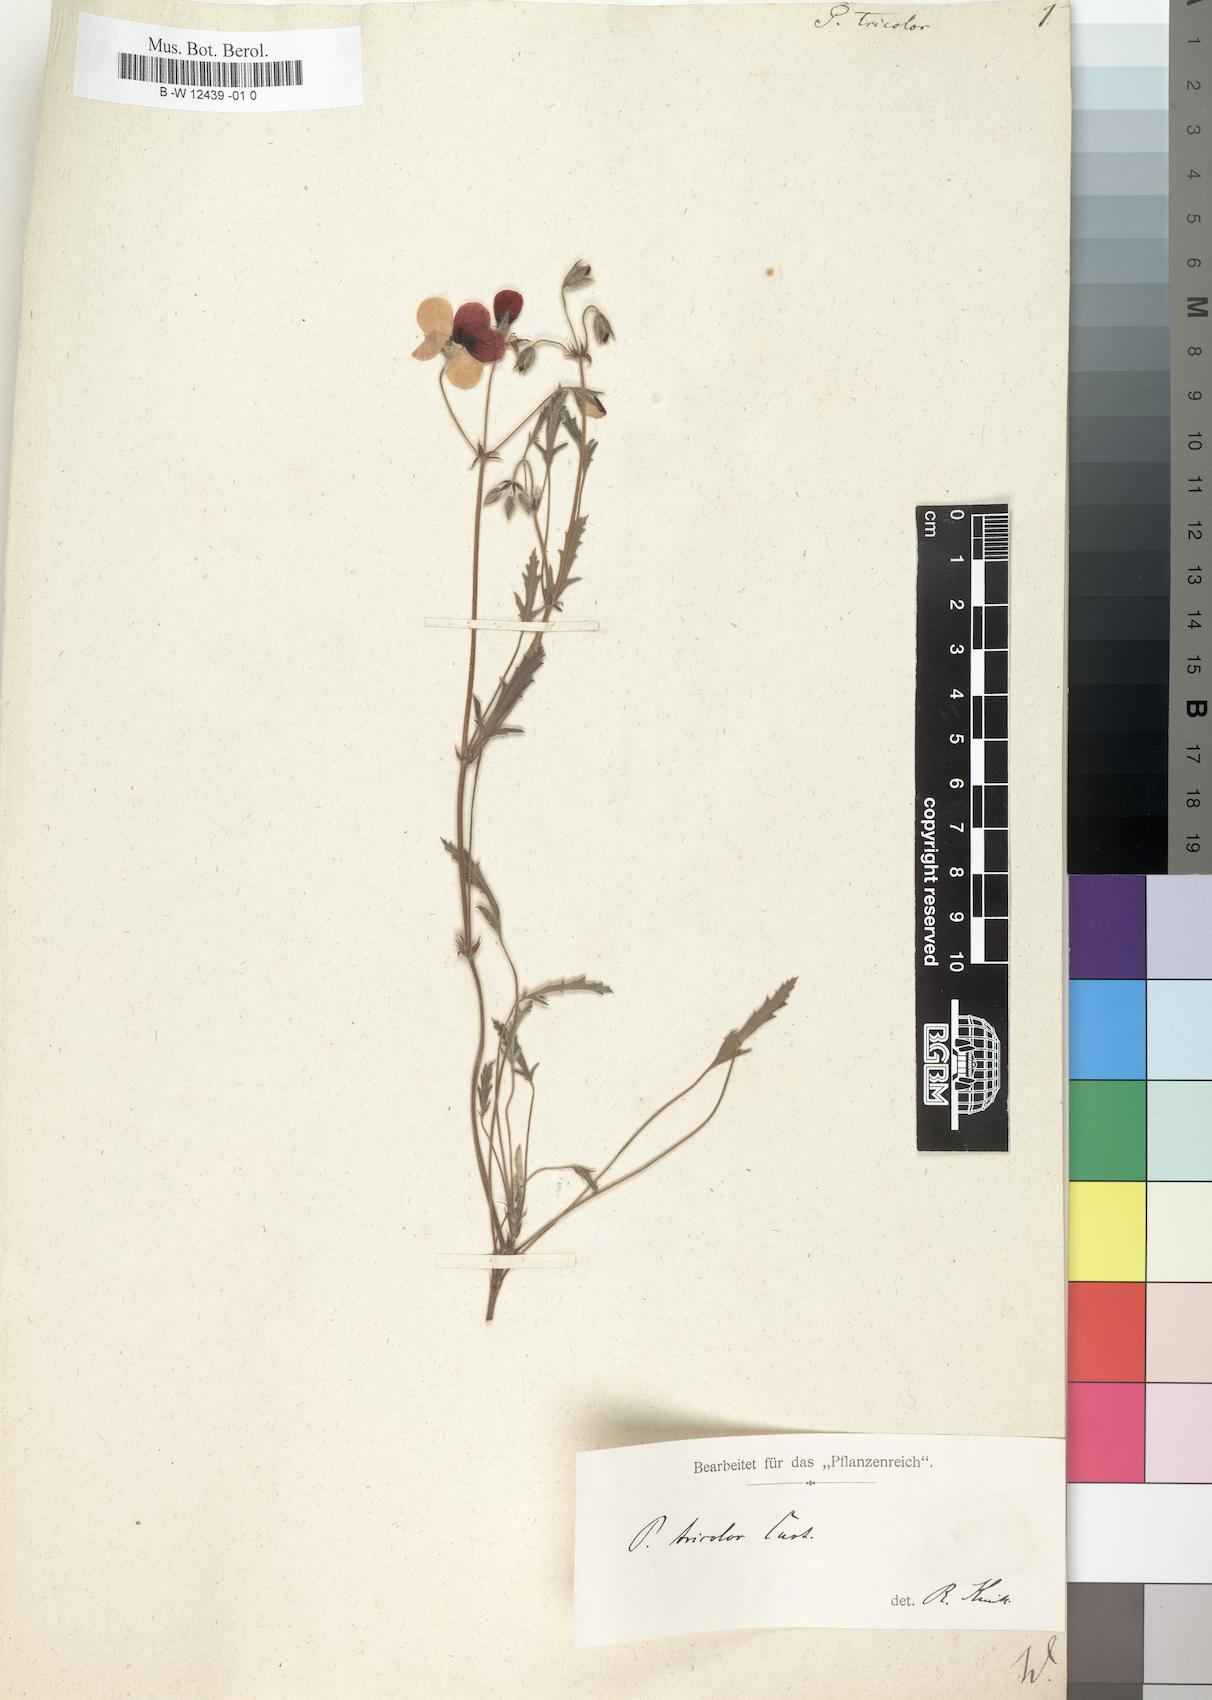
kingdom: Plantae
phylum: Tracheophyta
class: Magnoliopsida
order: Geraniales
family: Geraniaceae
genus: Pelargonium
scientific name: Pelargonium tricolor
